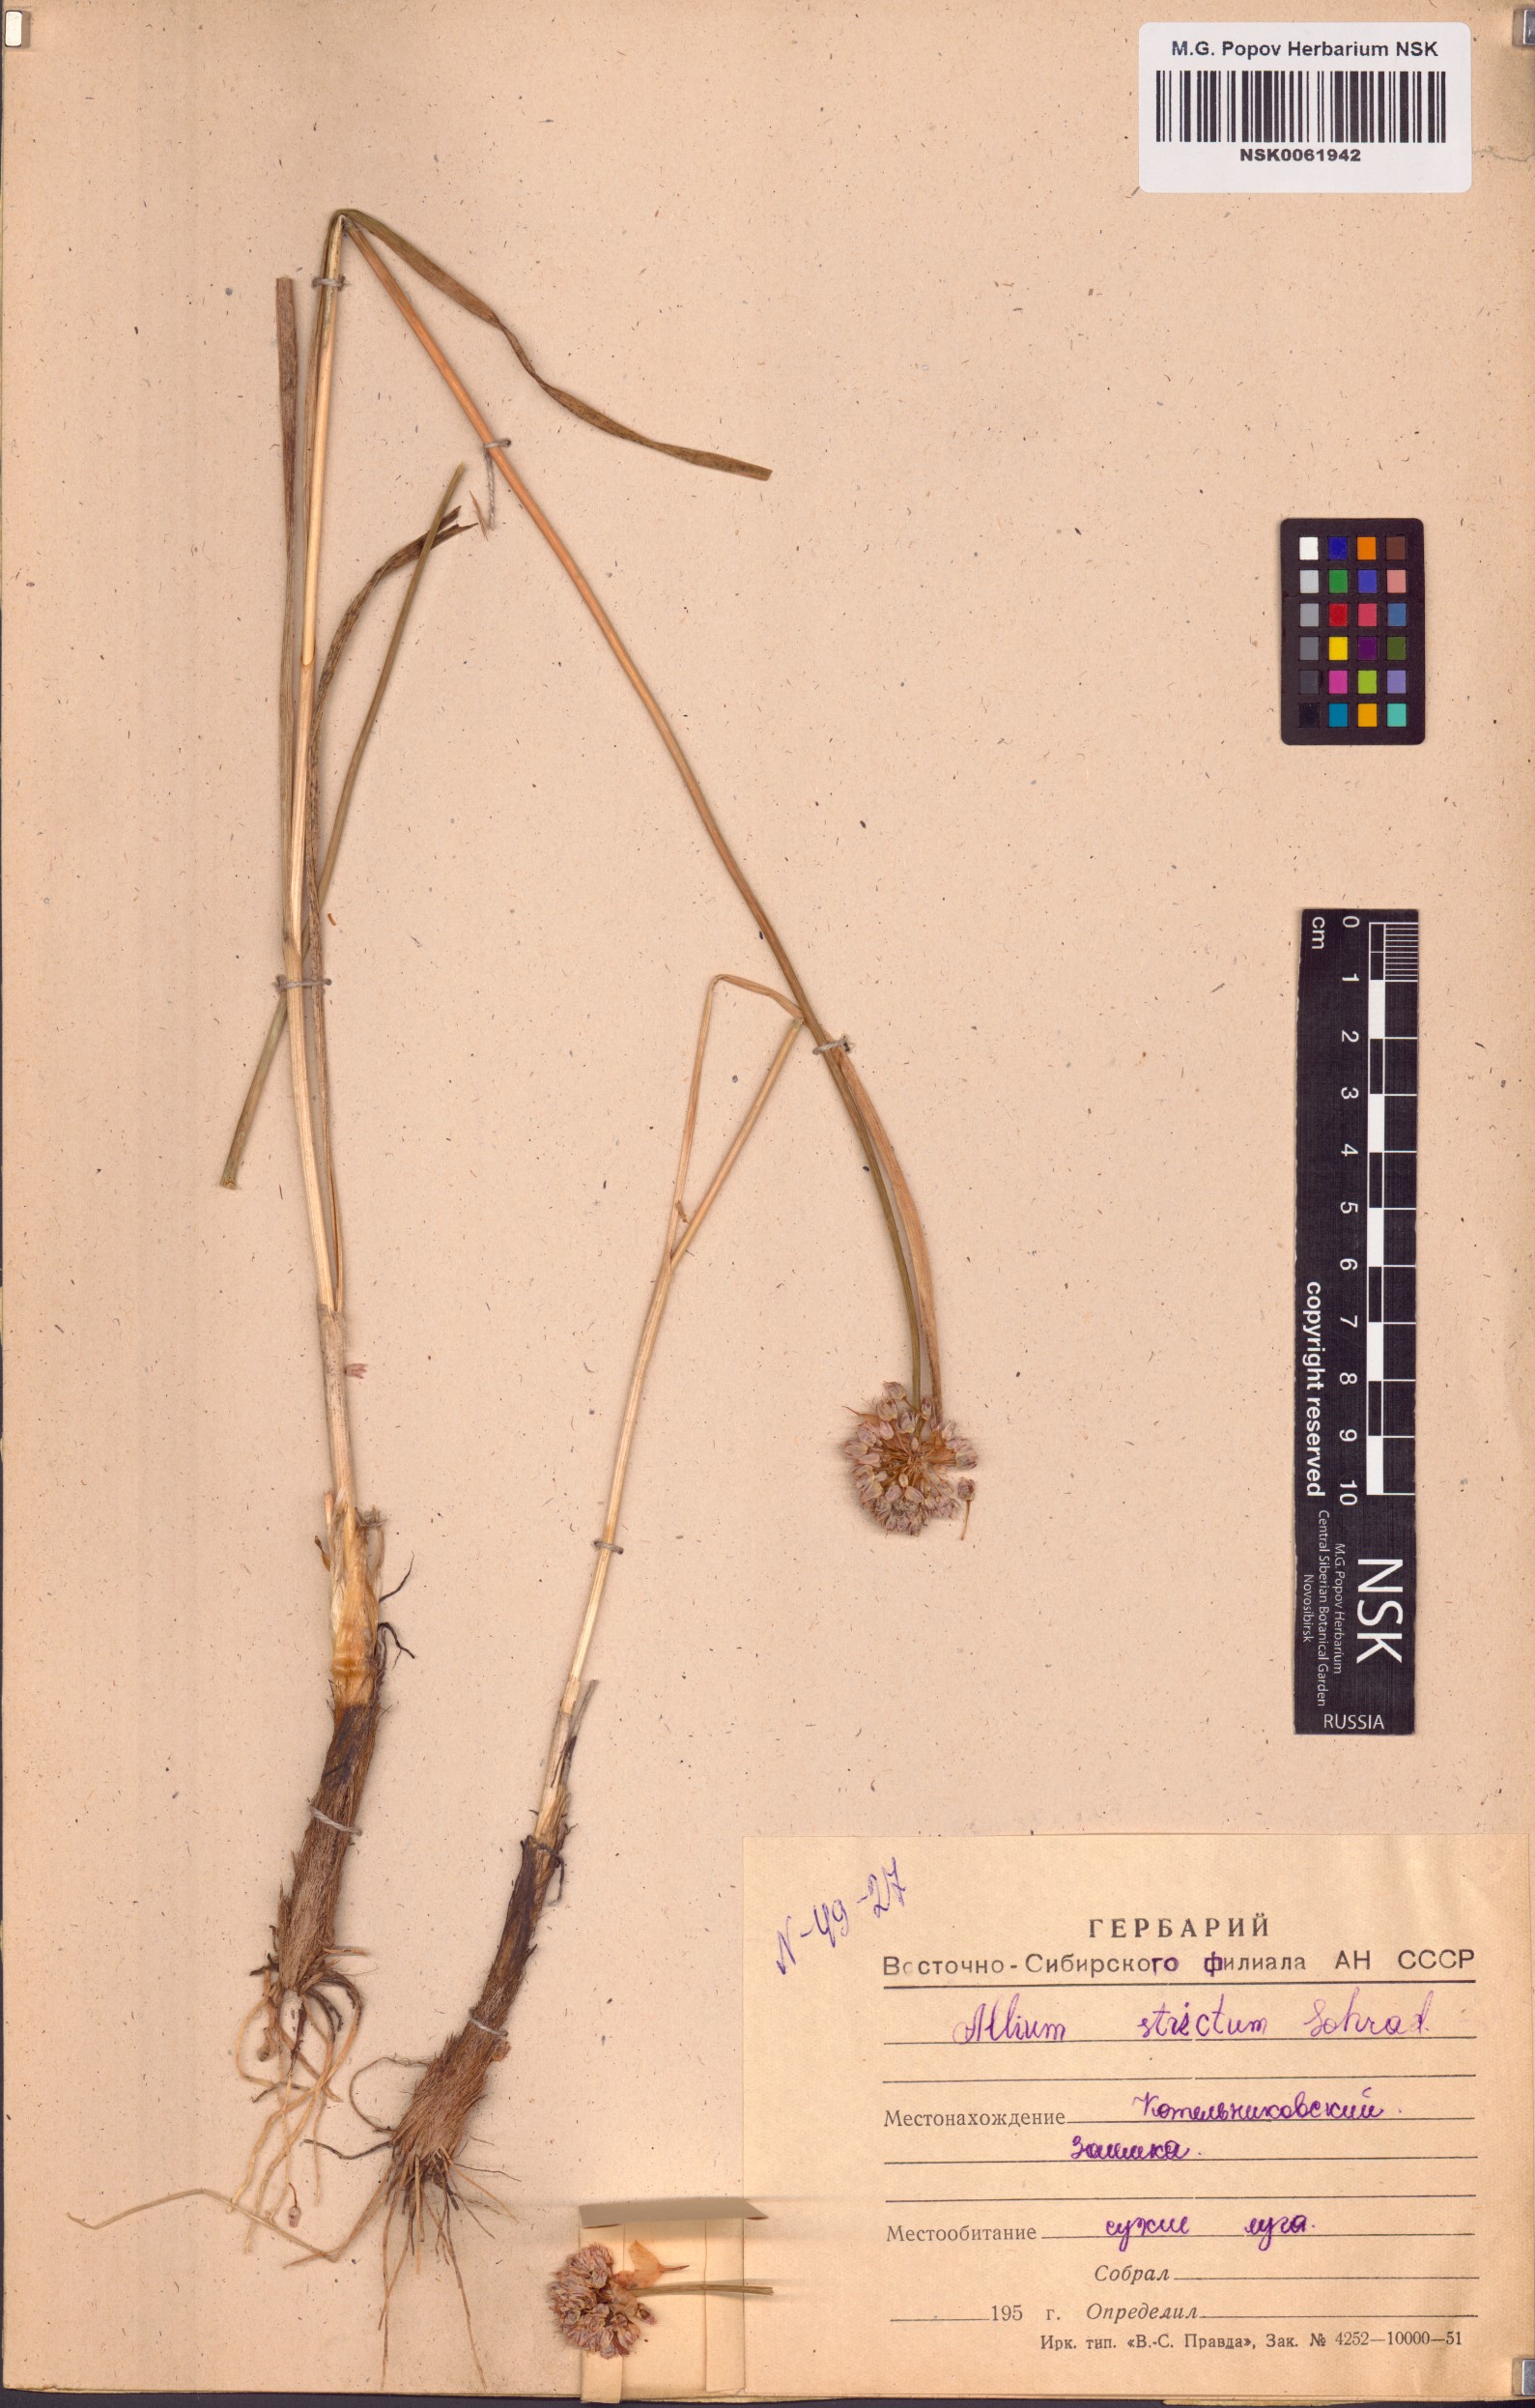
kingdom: Plantae
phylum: Tracheophyta
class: Liliopsida
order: Asparagales
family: Amaryllidaceae
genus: Allium
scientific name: Allium strictum
